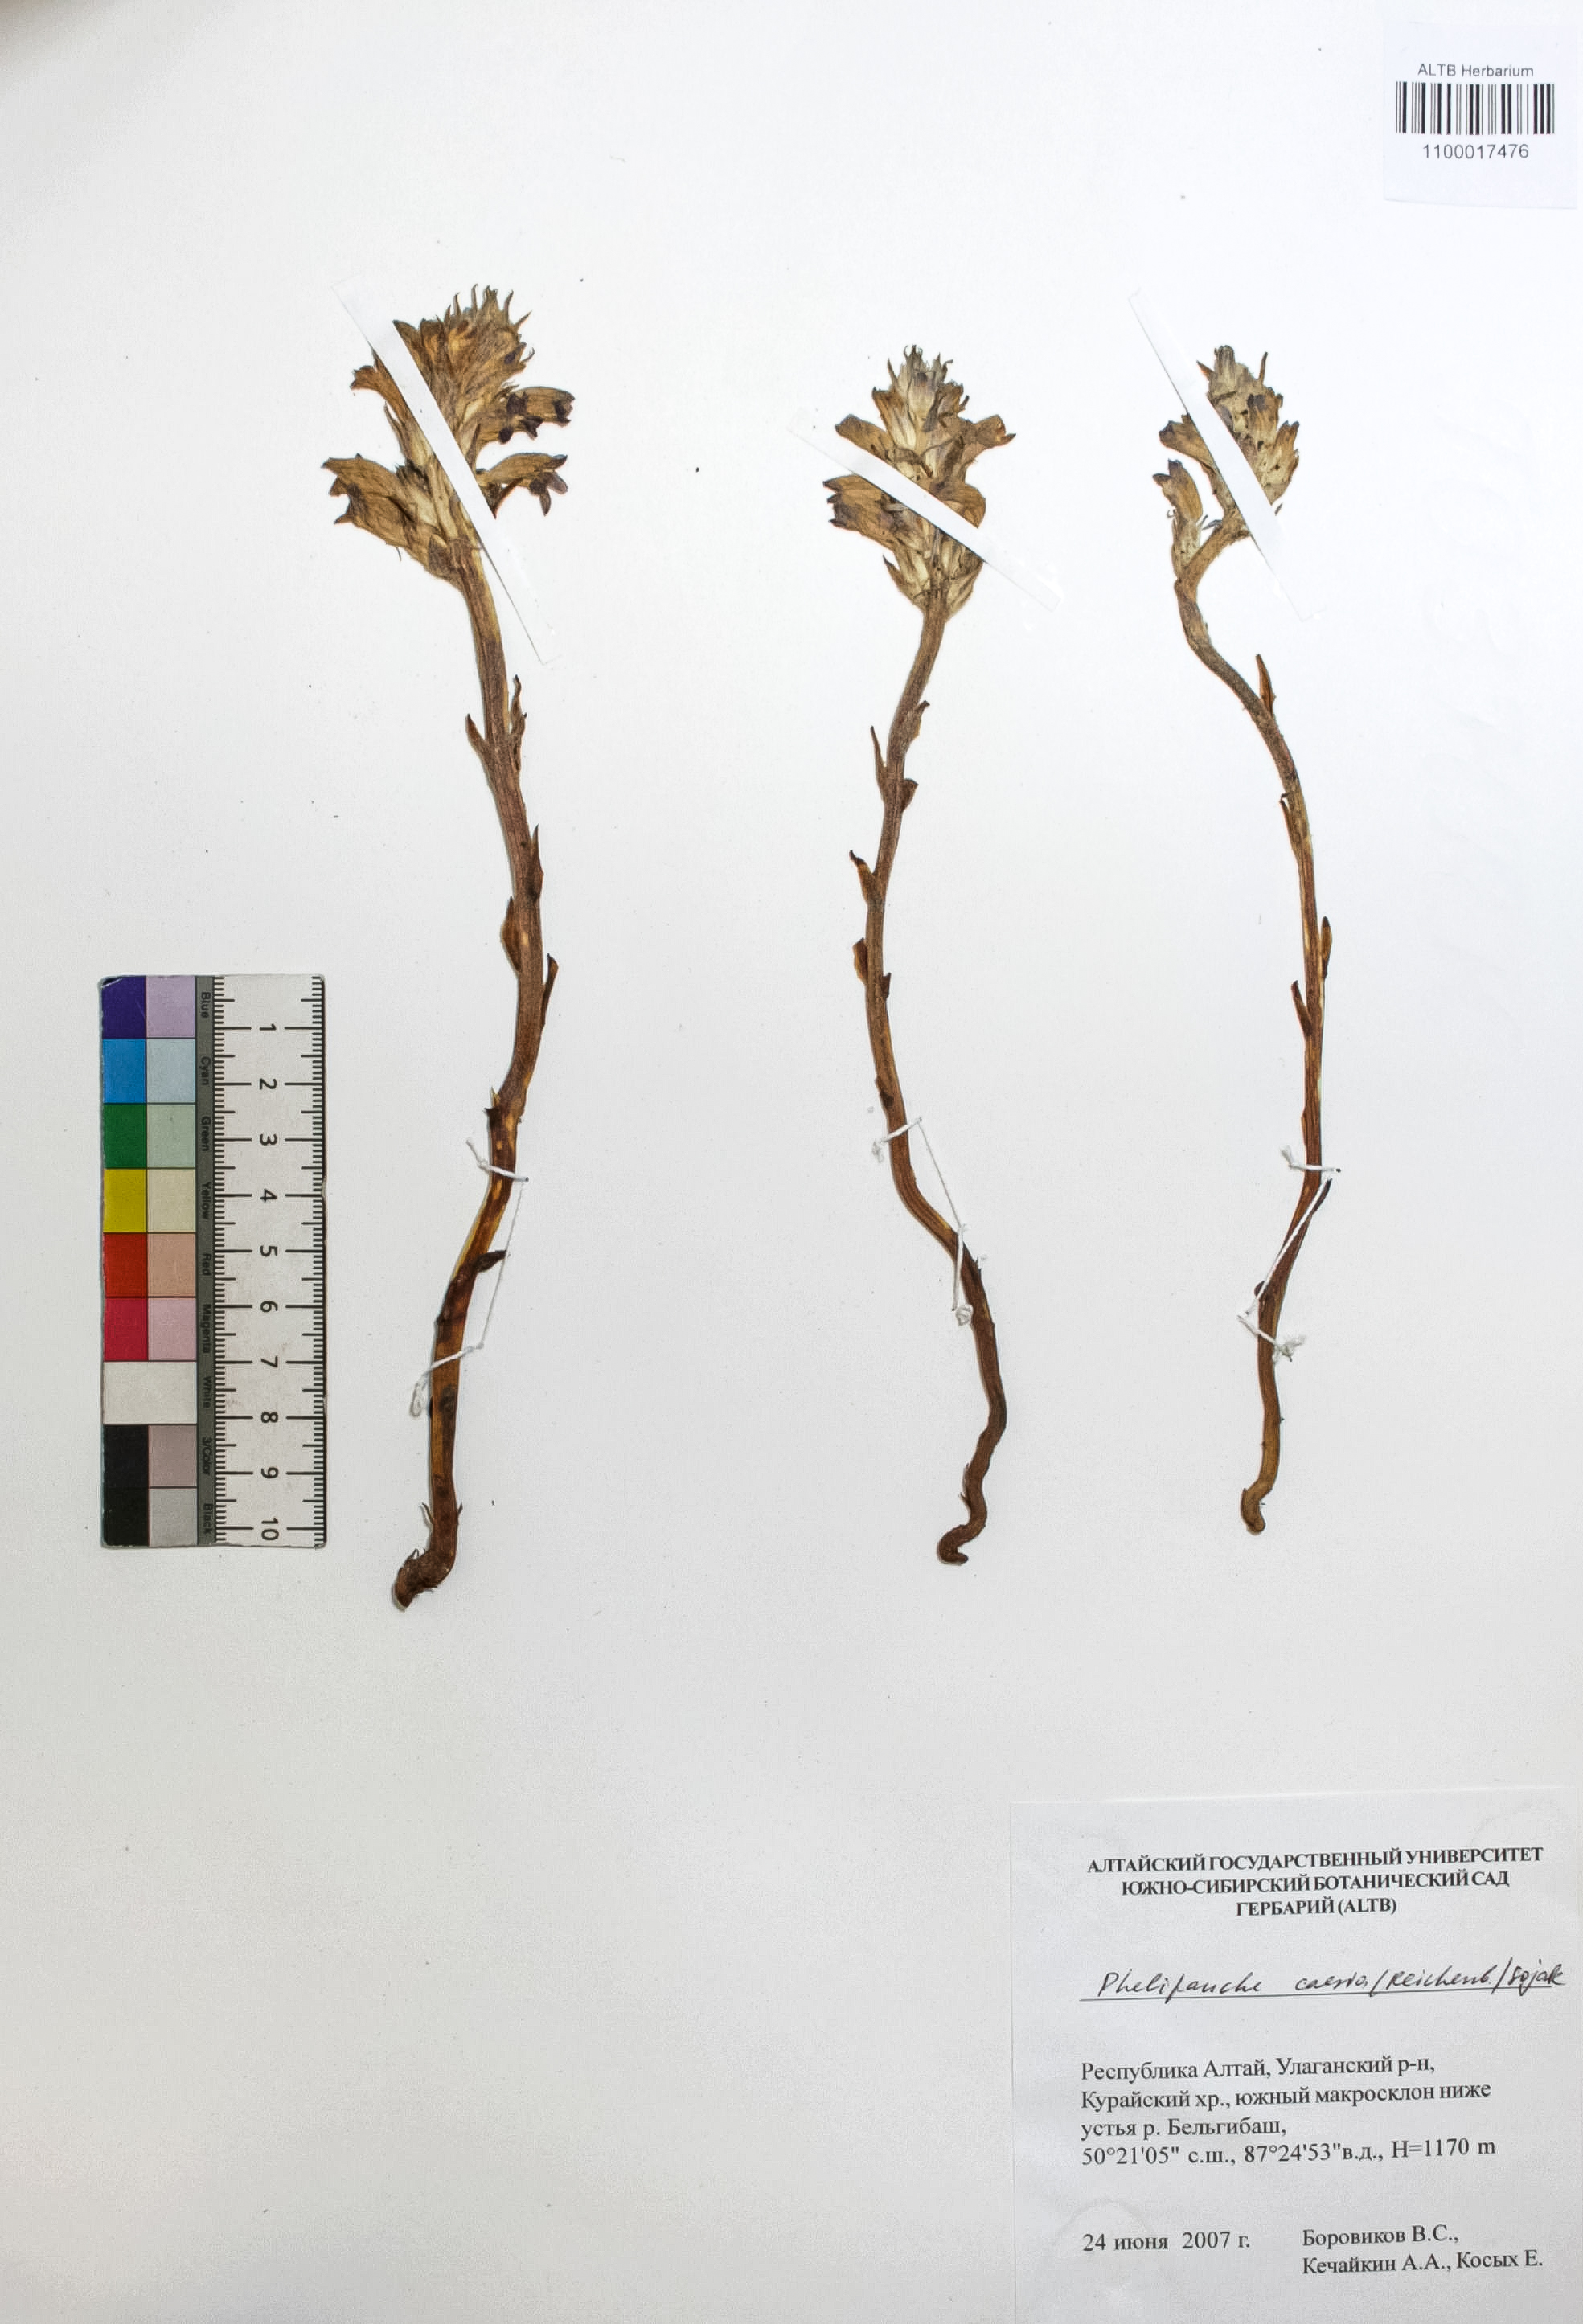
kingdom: Plantae
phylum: Tracheophyta
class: Magnoliopsida
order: Lamiales
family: Orobanchaceae
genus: Phelipanche
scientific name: Phelipanche caesia
